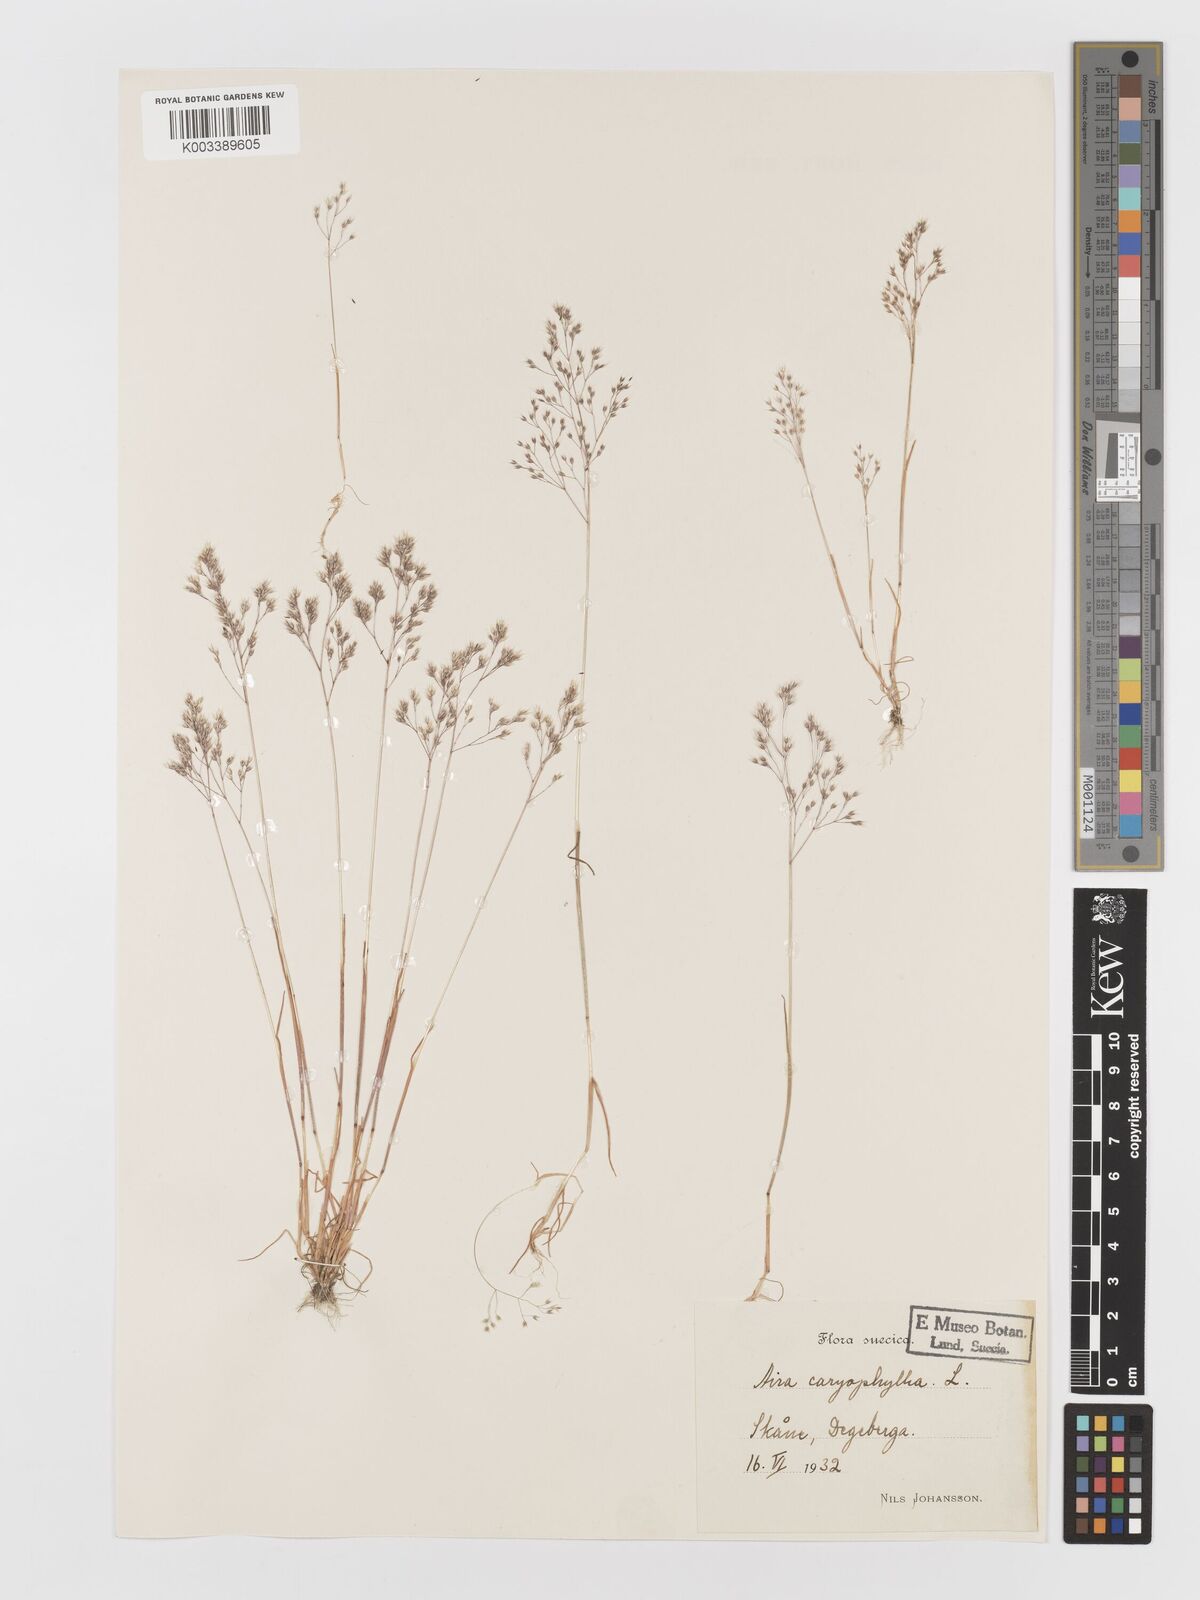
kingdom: Plantae
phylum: Tracheophyta
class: Liliopsida
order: Poales
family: Poaceae
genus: Aira
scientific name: Aira caryophyllea
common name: Silver hairgrass
